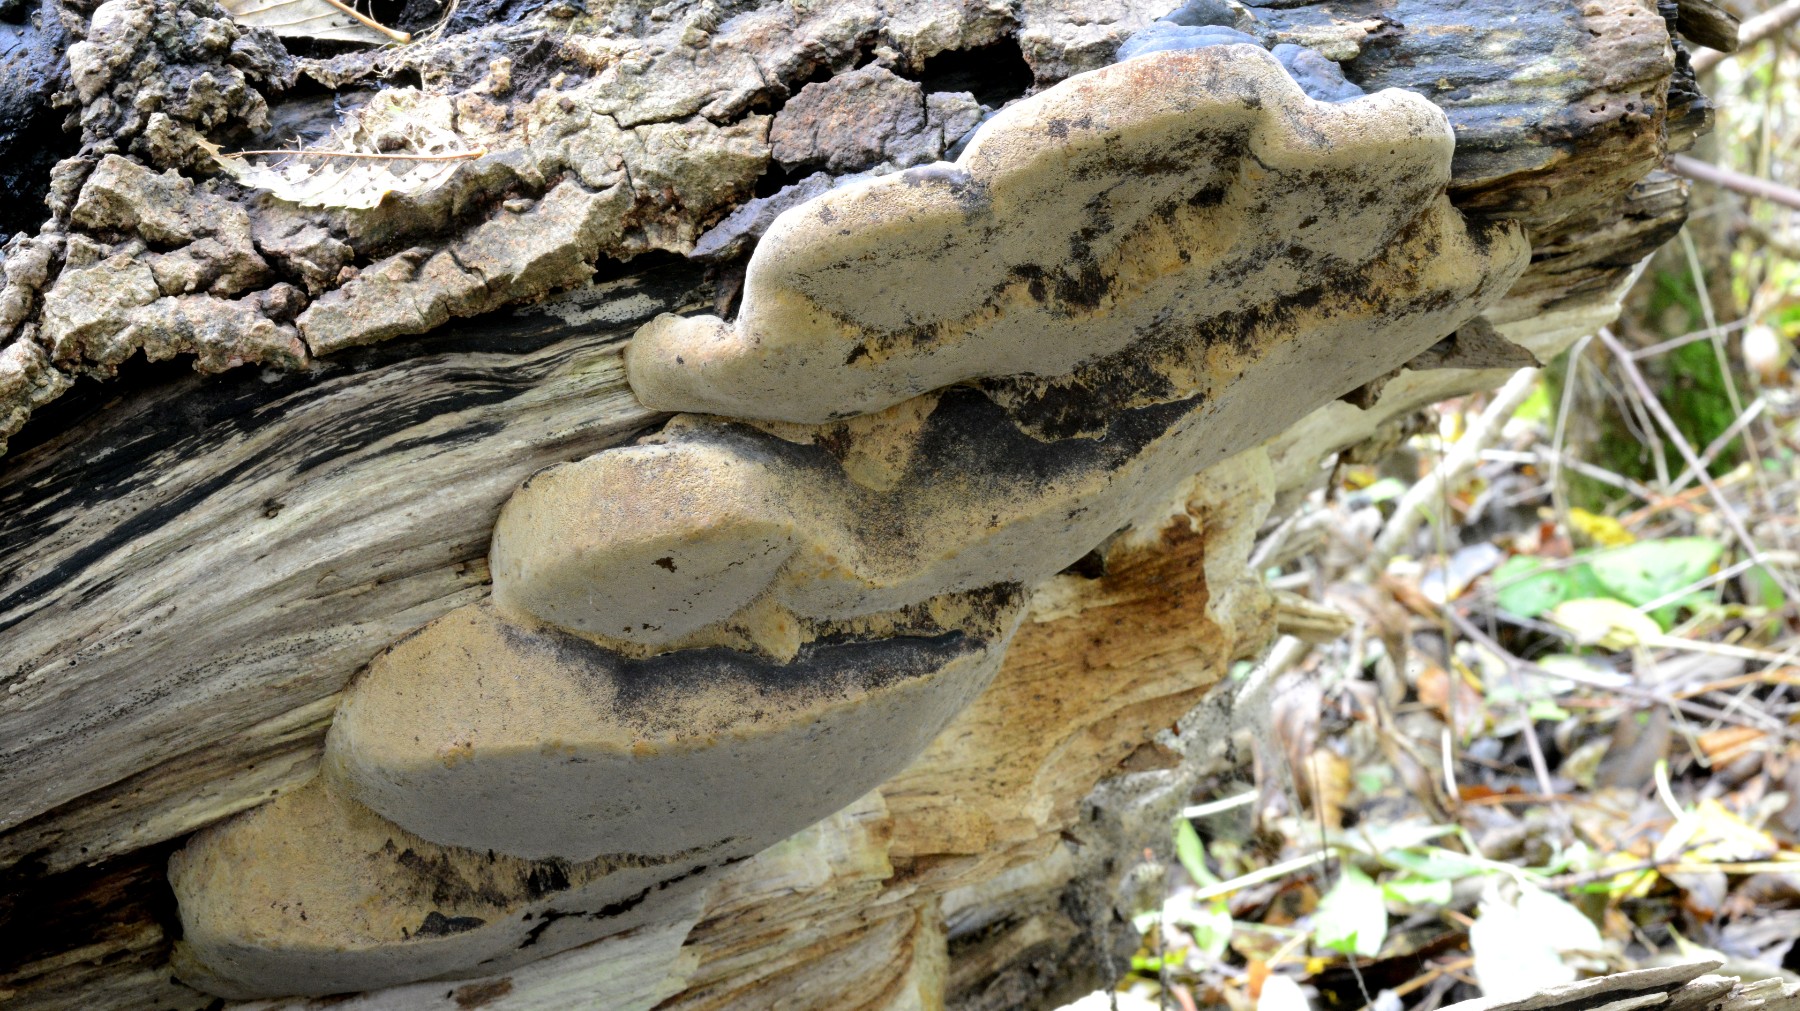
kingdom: Fungi
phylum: Basidiomycota
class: Agaricomycetes
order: Hymenochaetales
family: Hymenochaetaceae
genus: Phellinus
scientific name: Phellinus populicola
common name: poppel-ildporesvamp
